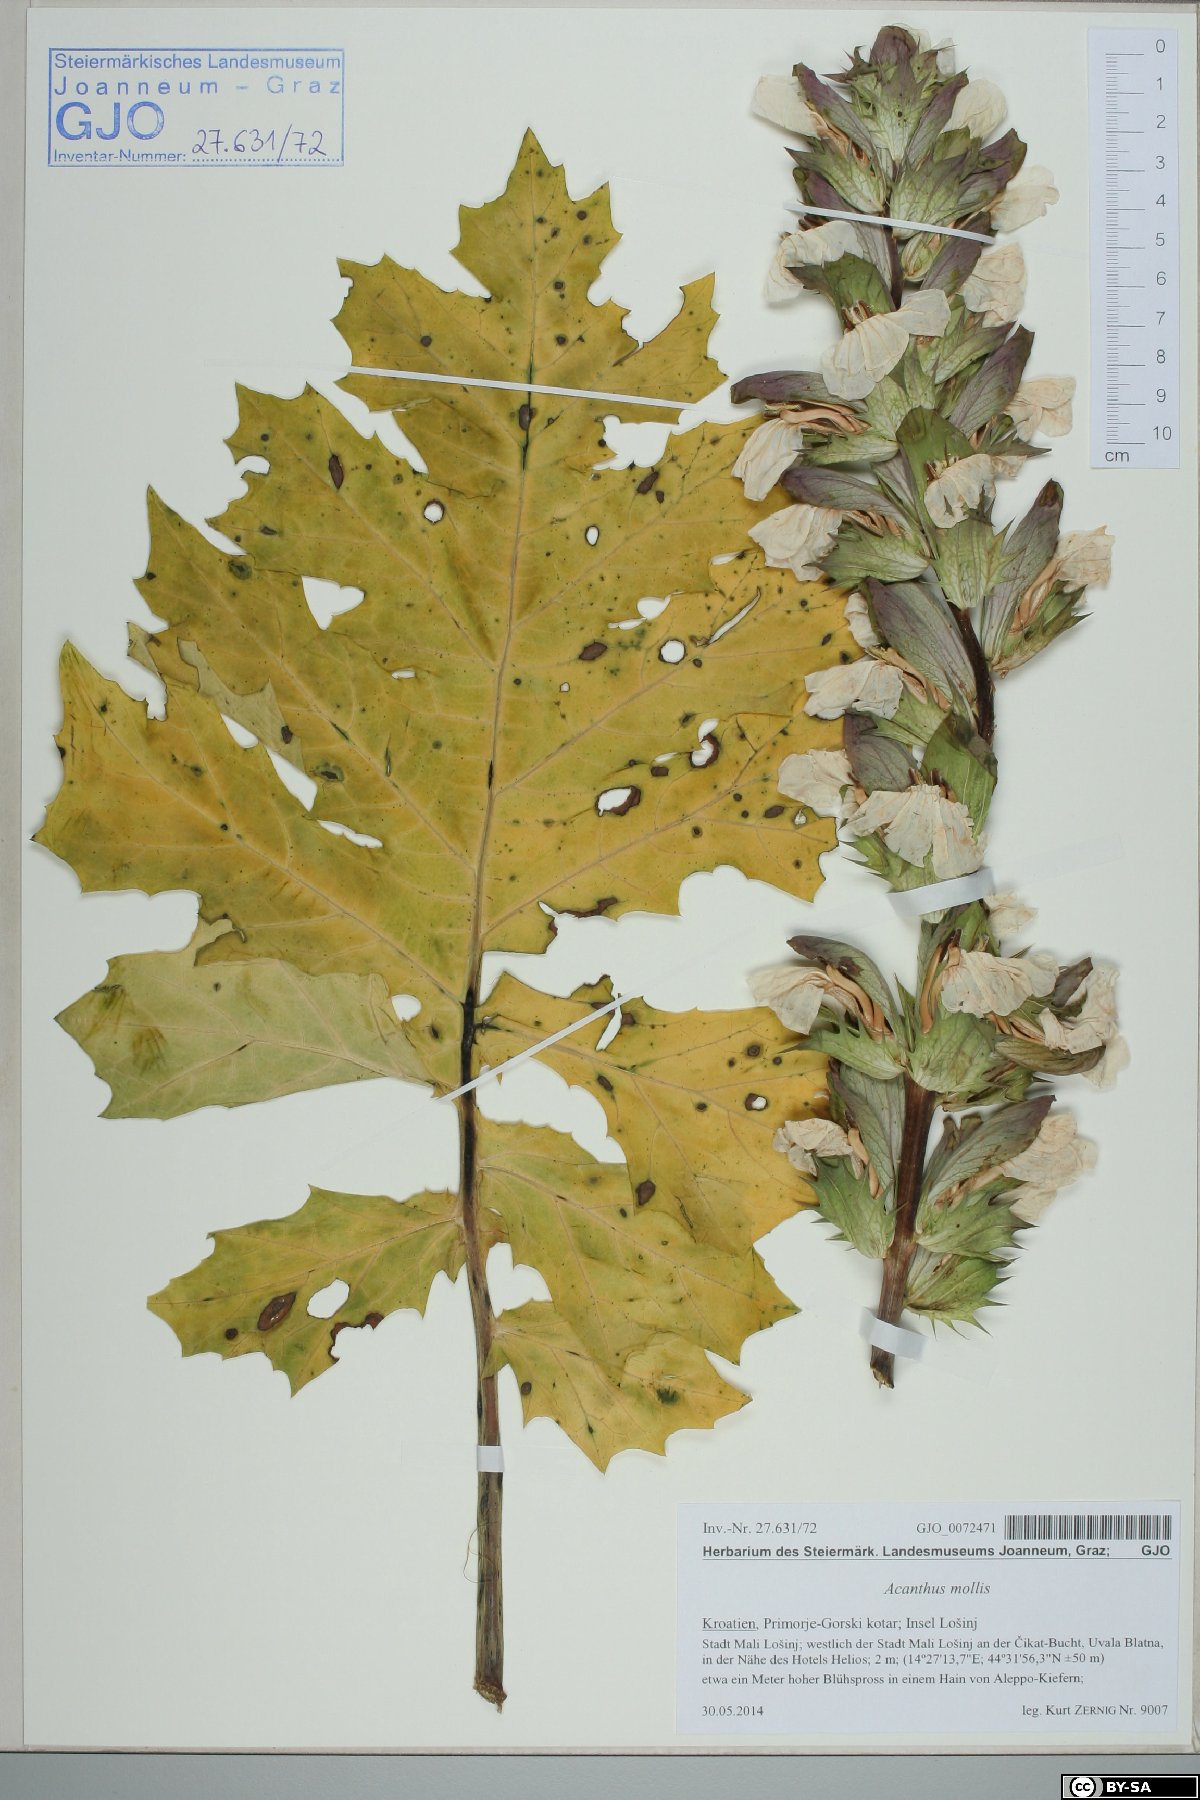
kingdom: Plantae
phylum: Tracheophyta
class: Magnoliopsida
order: Lamiales
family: Acanthaceae
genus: Acanthus
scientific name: Acanthus mollis
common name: Bear's-breech
